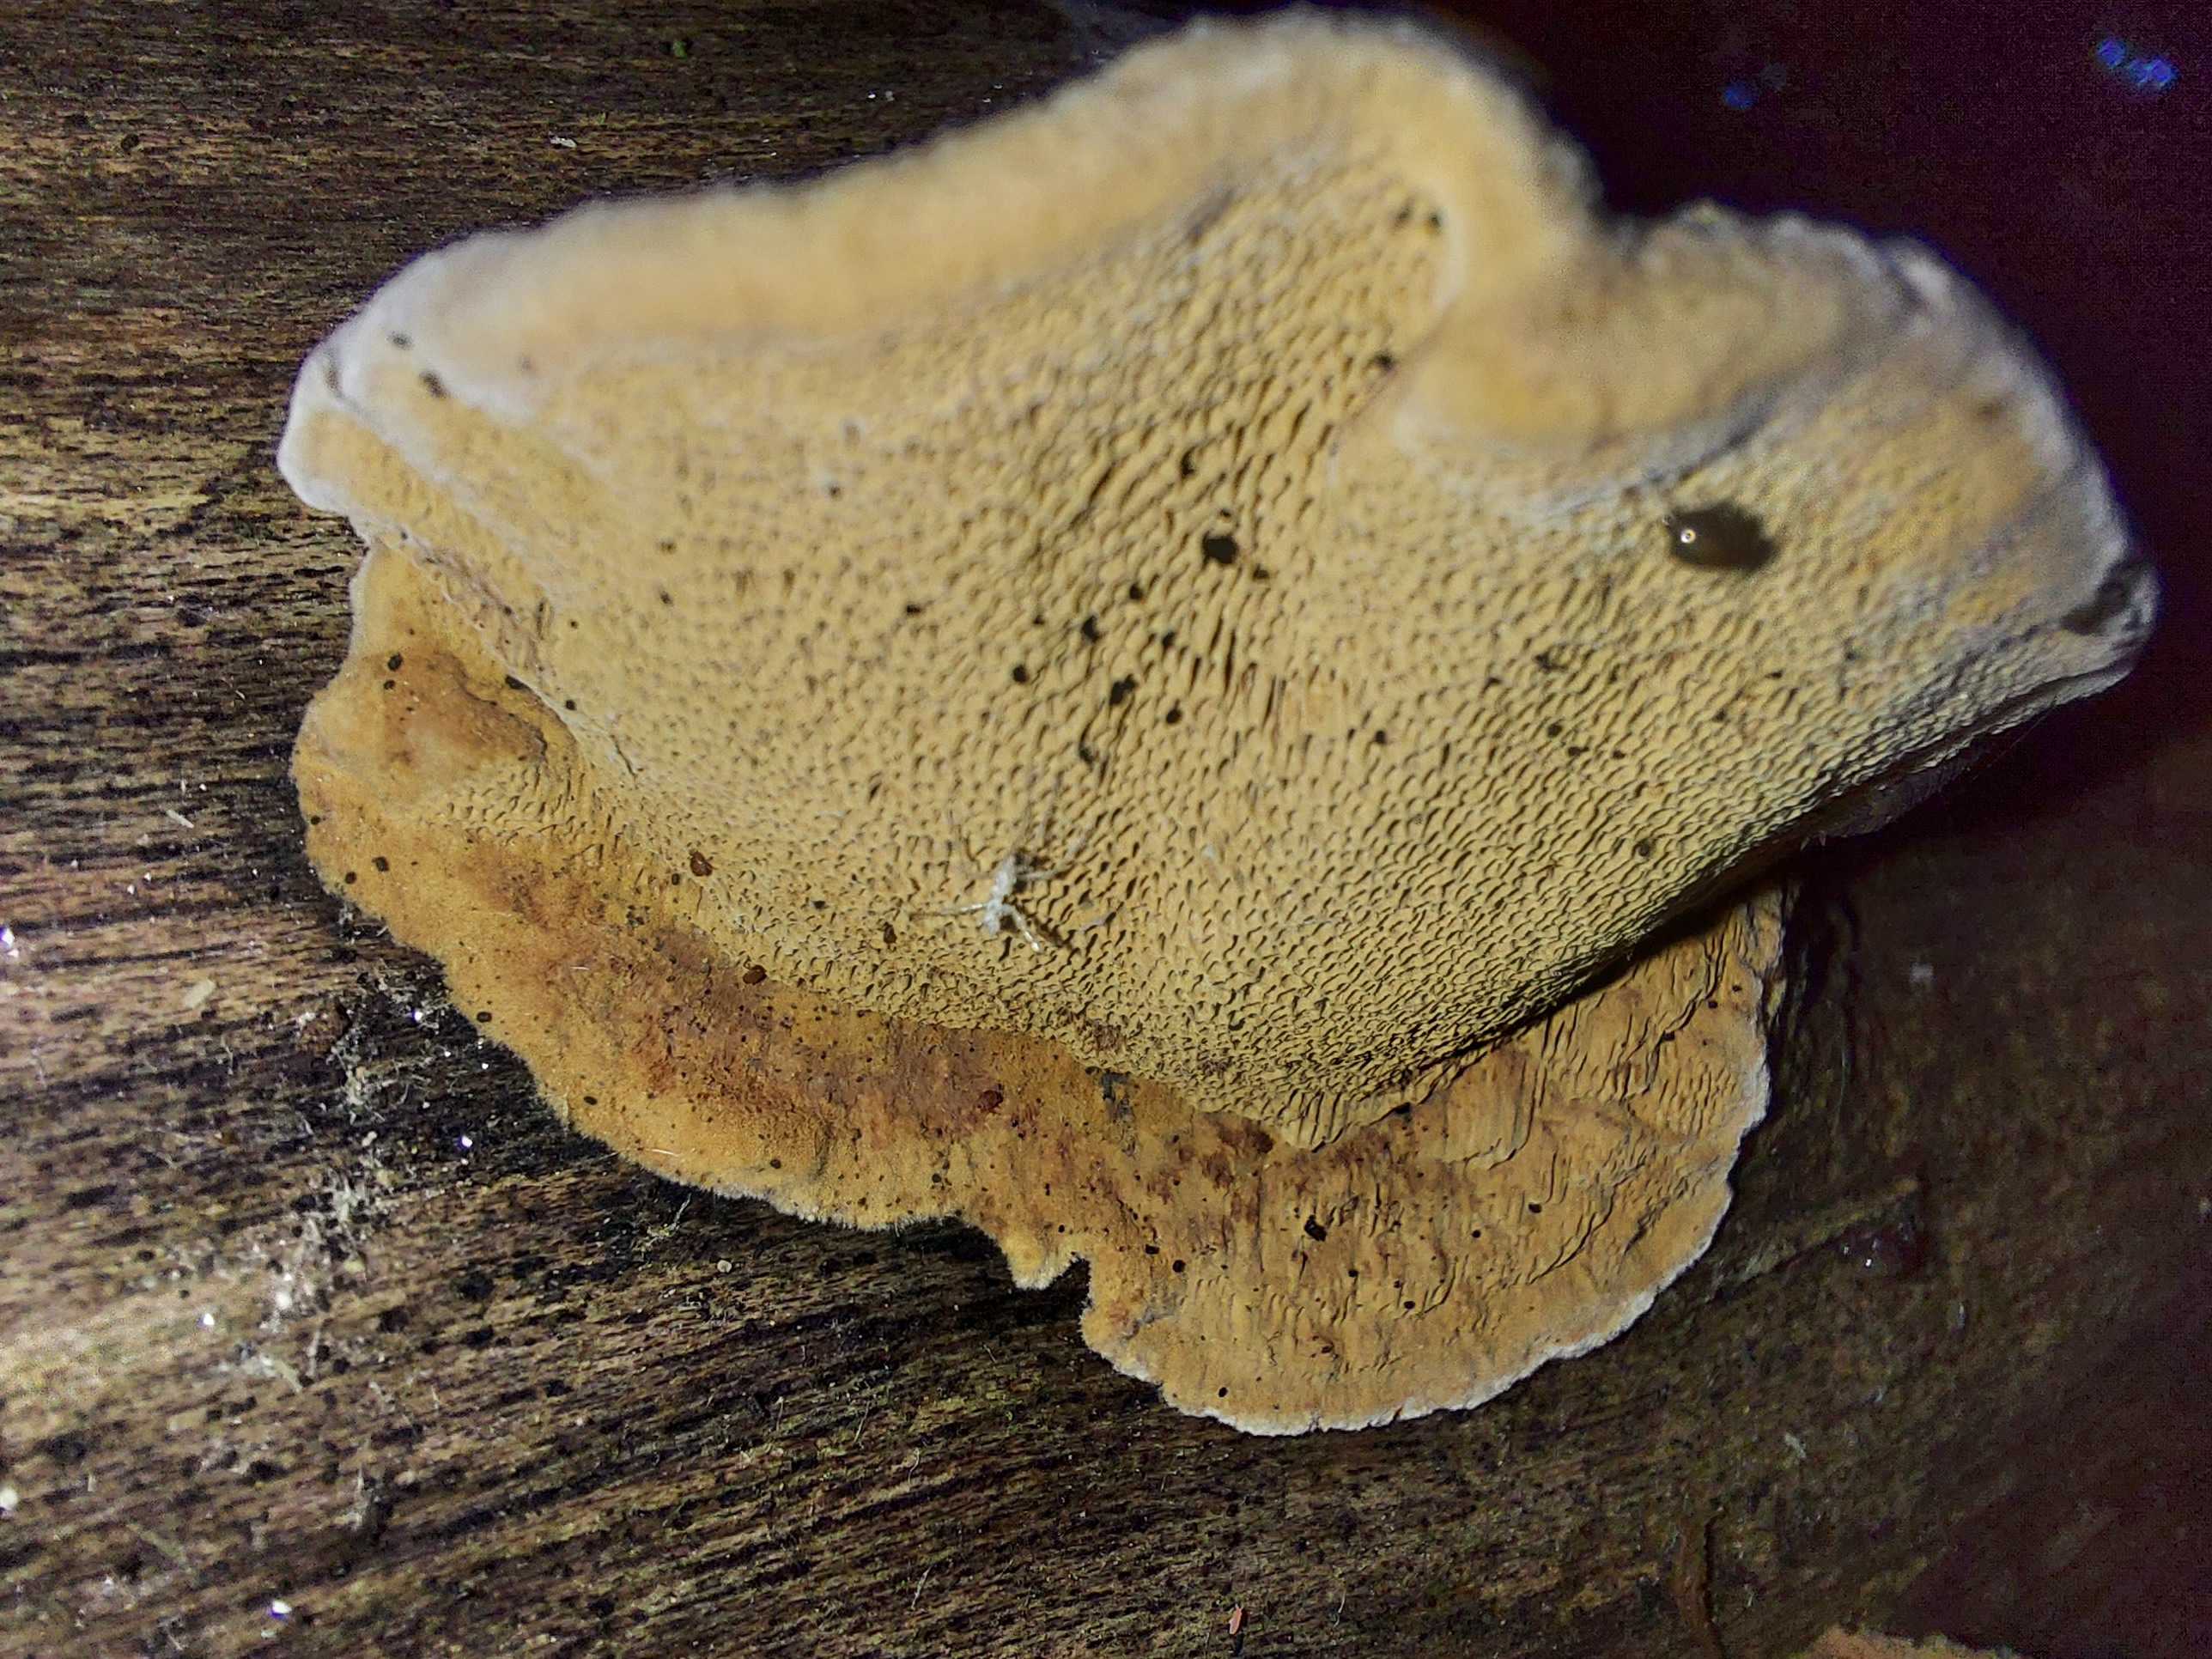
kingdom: Fungi
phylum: Basidiomycota
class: Agaricomycetes
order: Polyporales
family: Phanerochaetaceae
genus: Hapalopilus
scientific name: Hapalopilus rutilans
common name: rødlig okkerporesvamp
